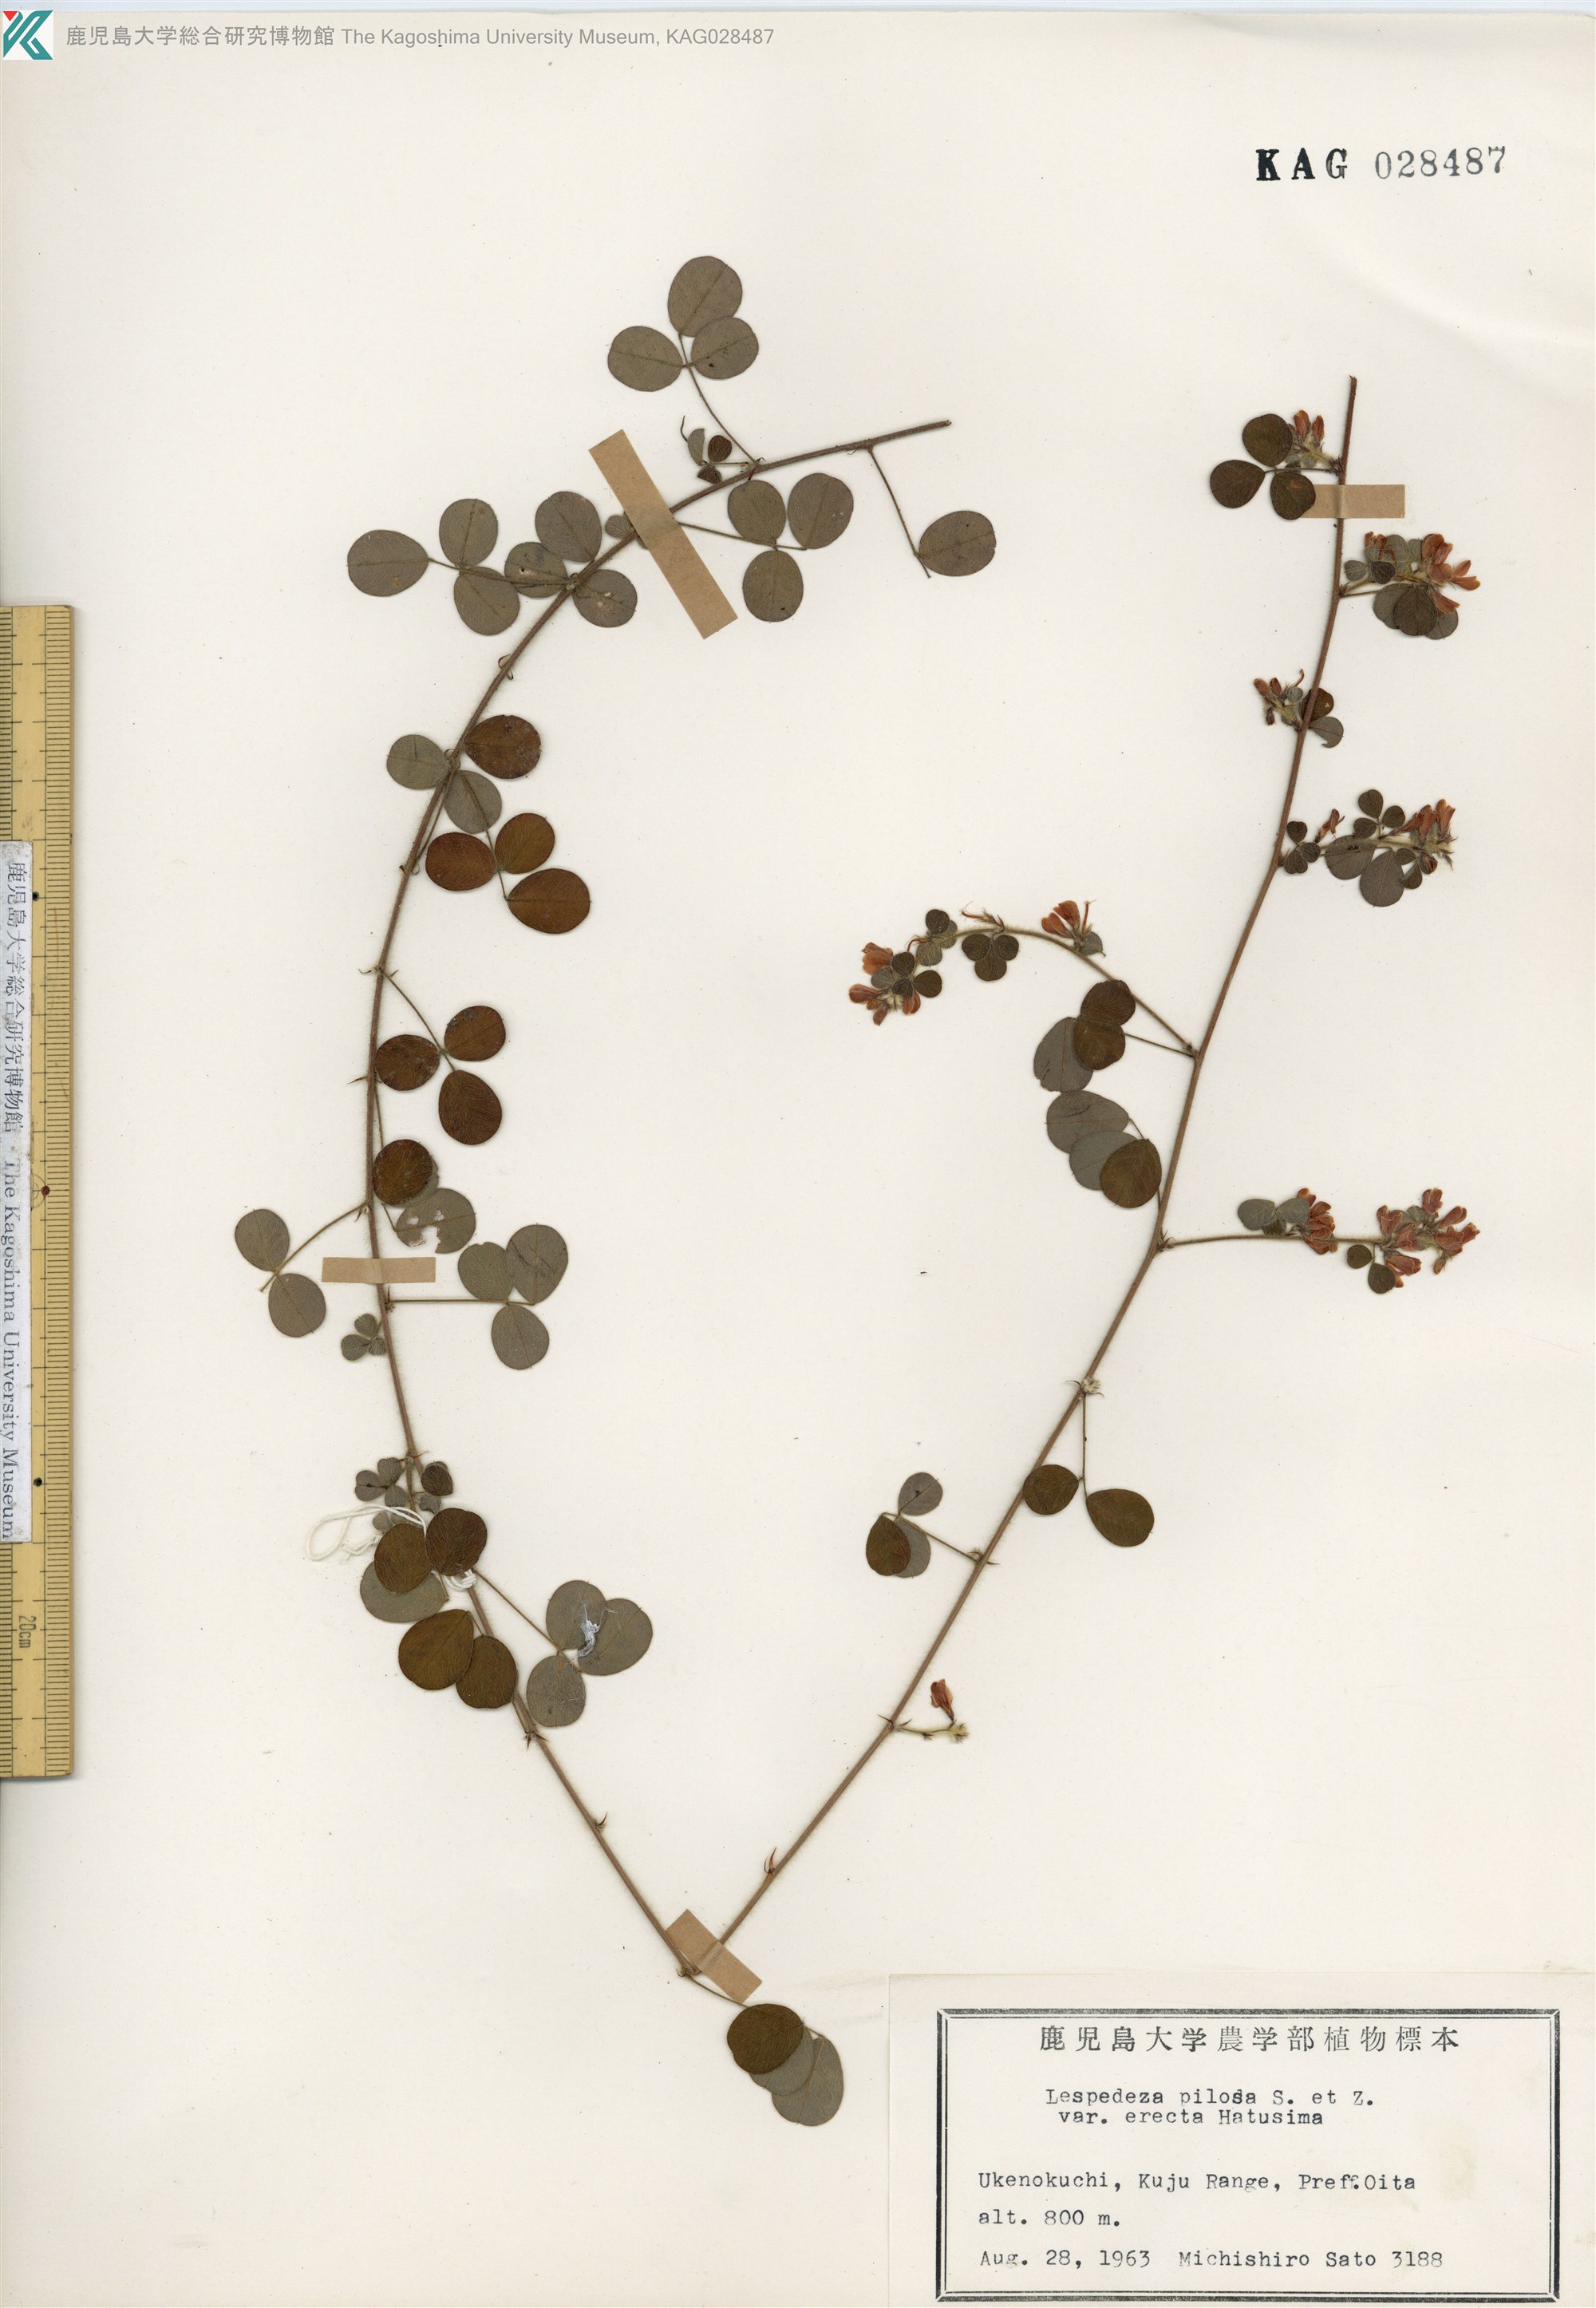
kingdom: Plantae
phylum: Tracheophyta
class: Magnoliopsida
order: Fabales
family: Fabaceae
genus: Lespedeza
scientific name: Lespedeza pilosa
